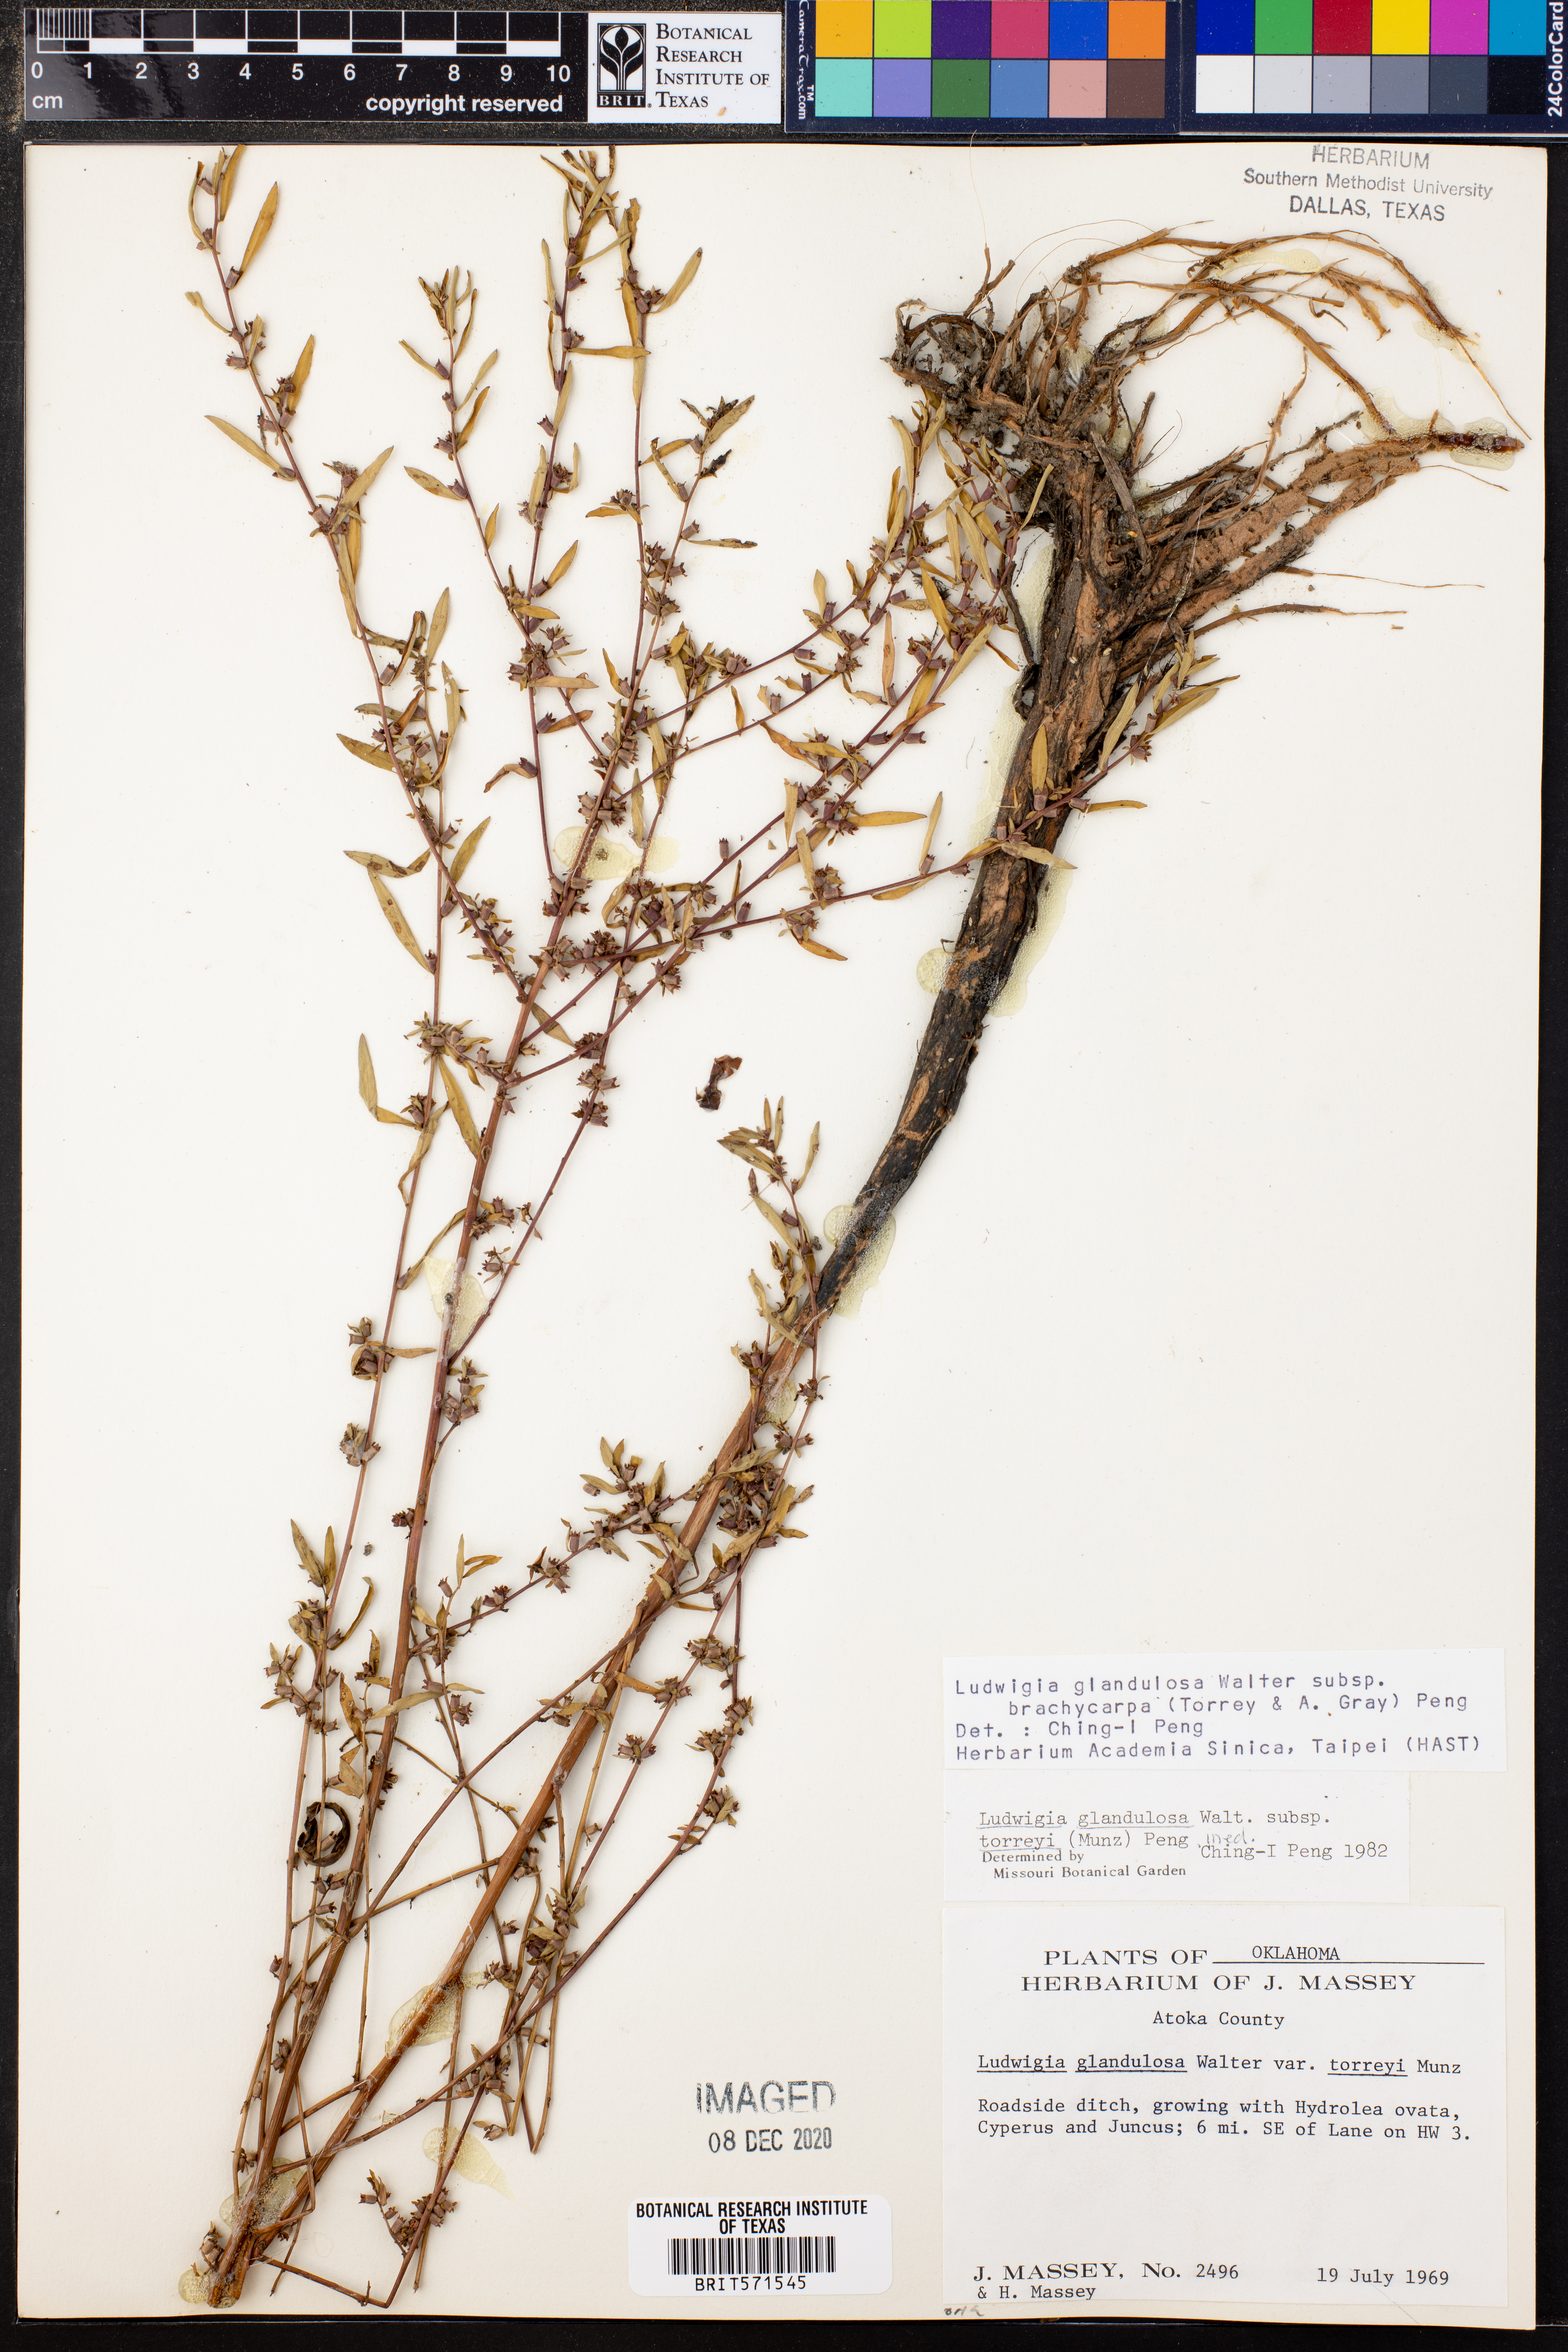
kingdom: Plantae
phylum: Tracheophyta
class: Magnoliopsida
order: Myrtales
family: Onagraceae
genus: Ludwigia
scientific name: Ludwigia glandulosa
